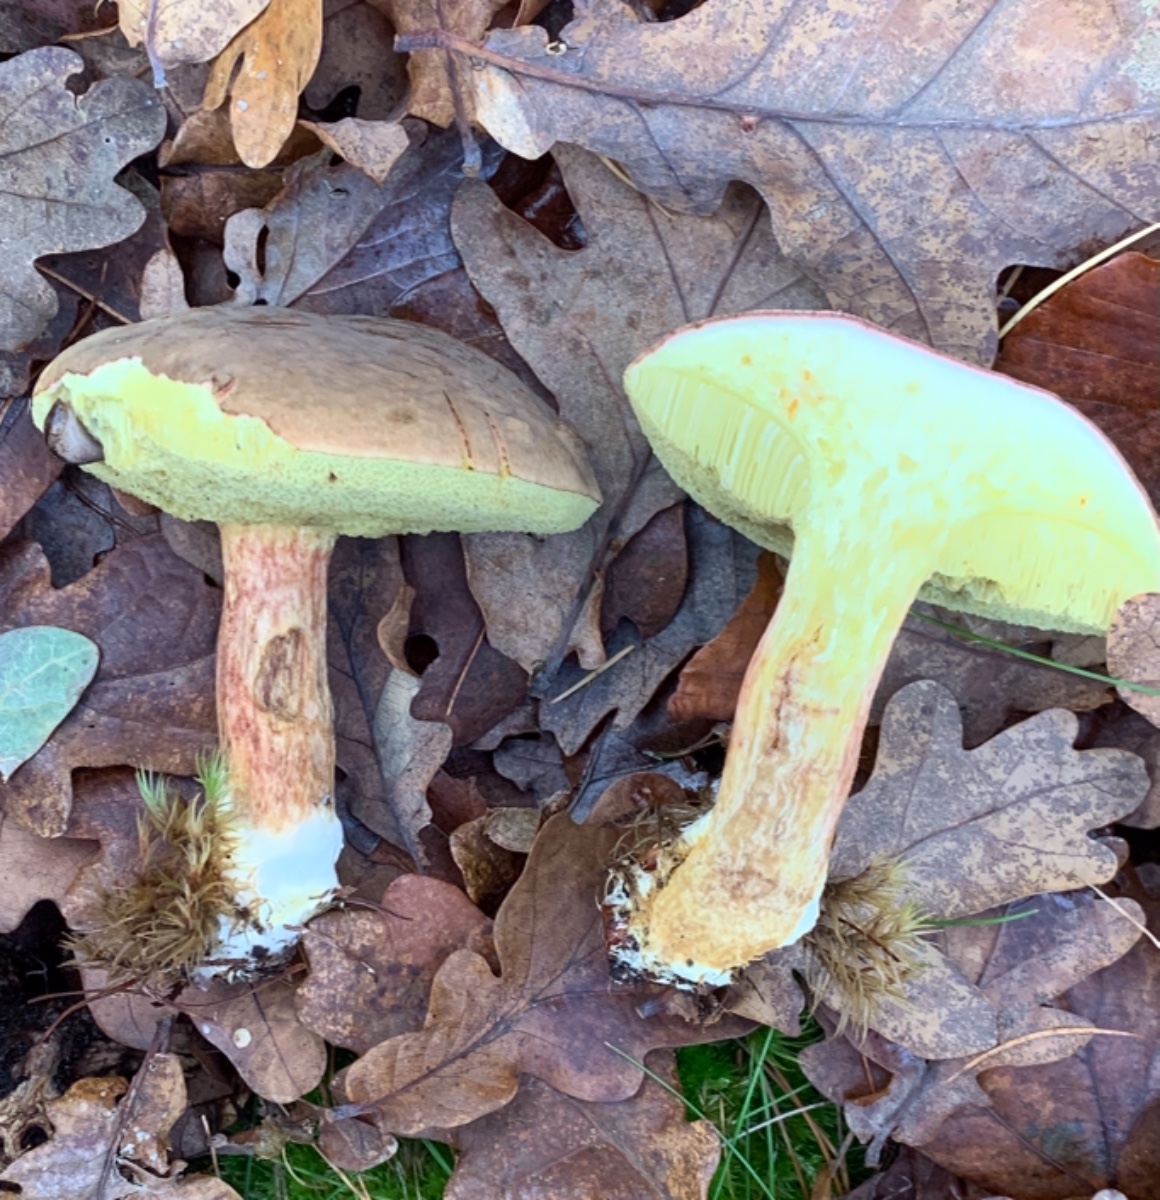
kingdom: Fungi
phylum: Basidiomycota
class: Agaricomycetes
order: Boletales
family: Boletaceae
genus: Xerocomellus
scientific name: Xerocomellus pruinatus
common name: dugget rørhat
